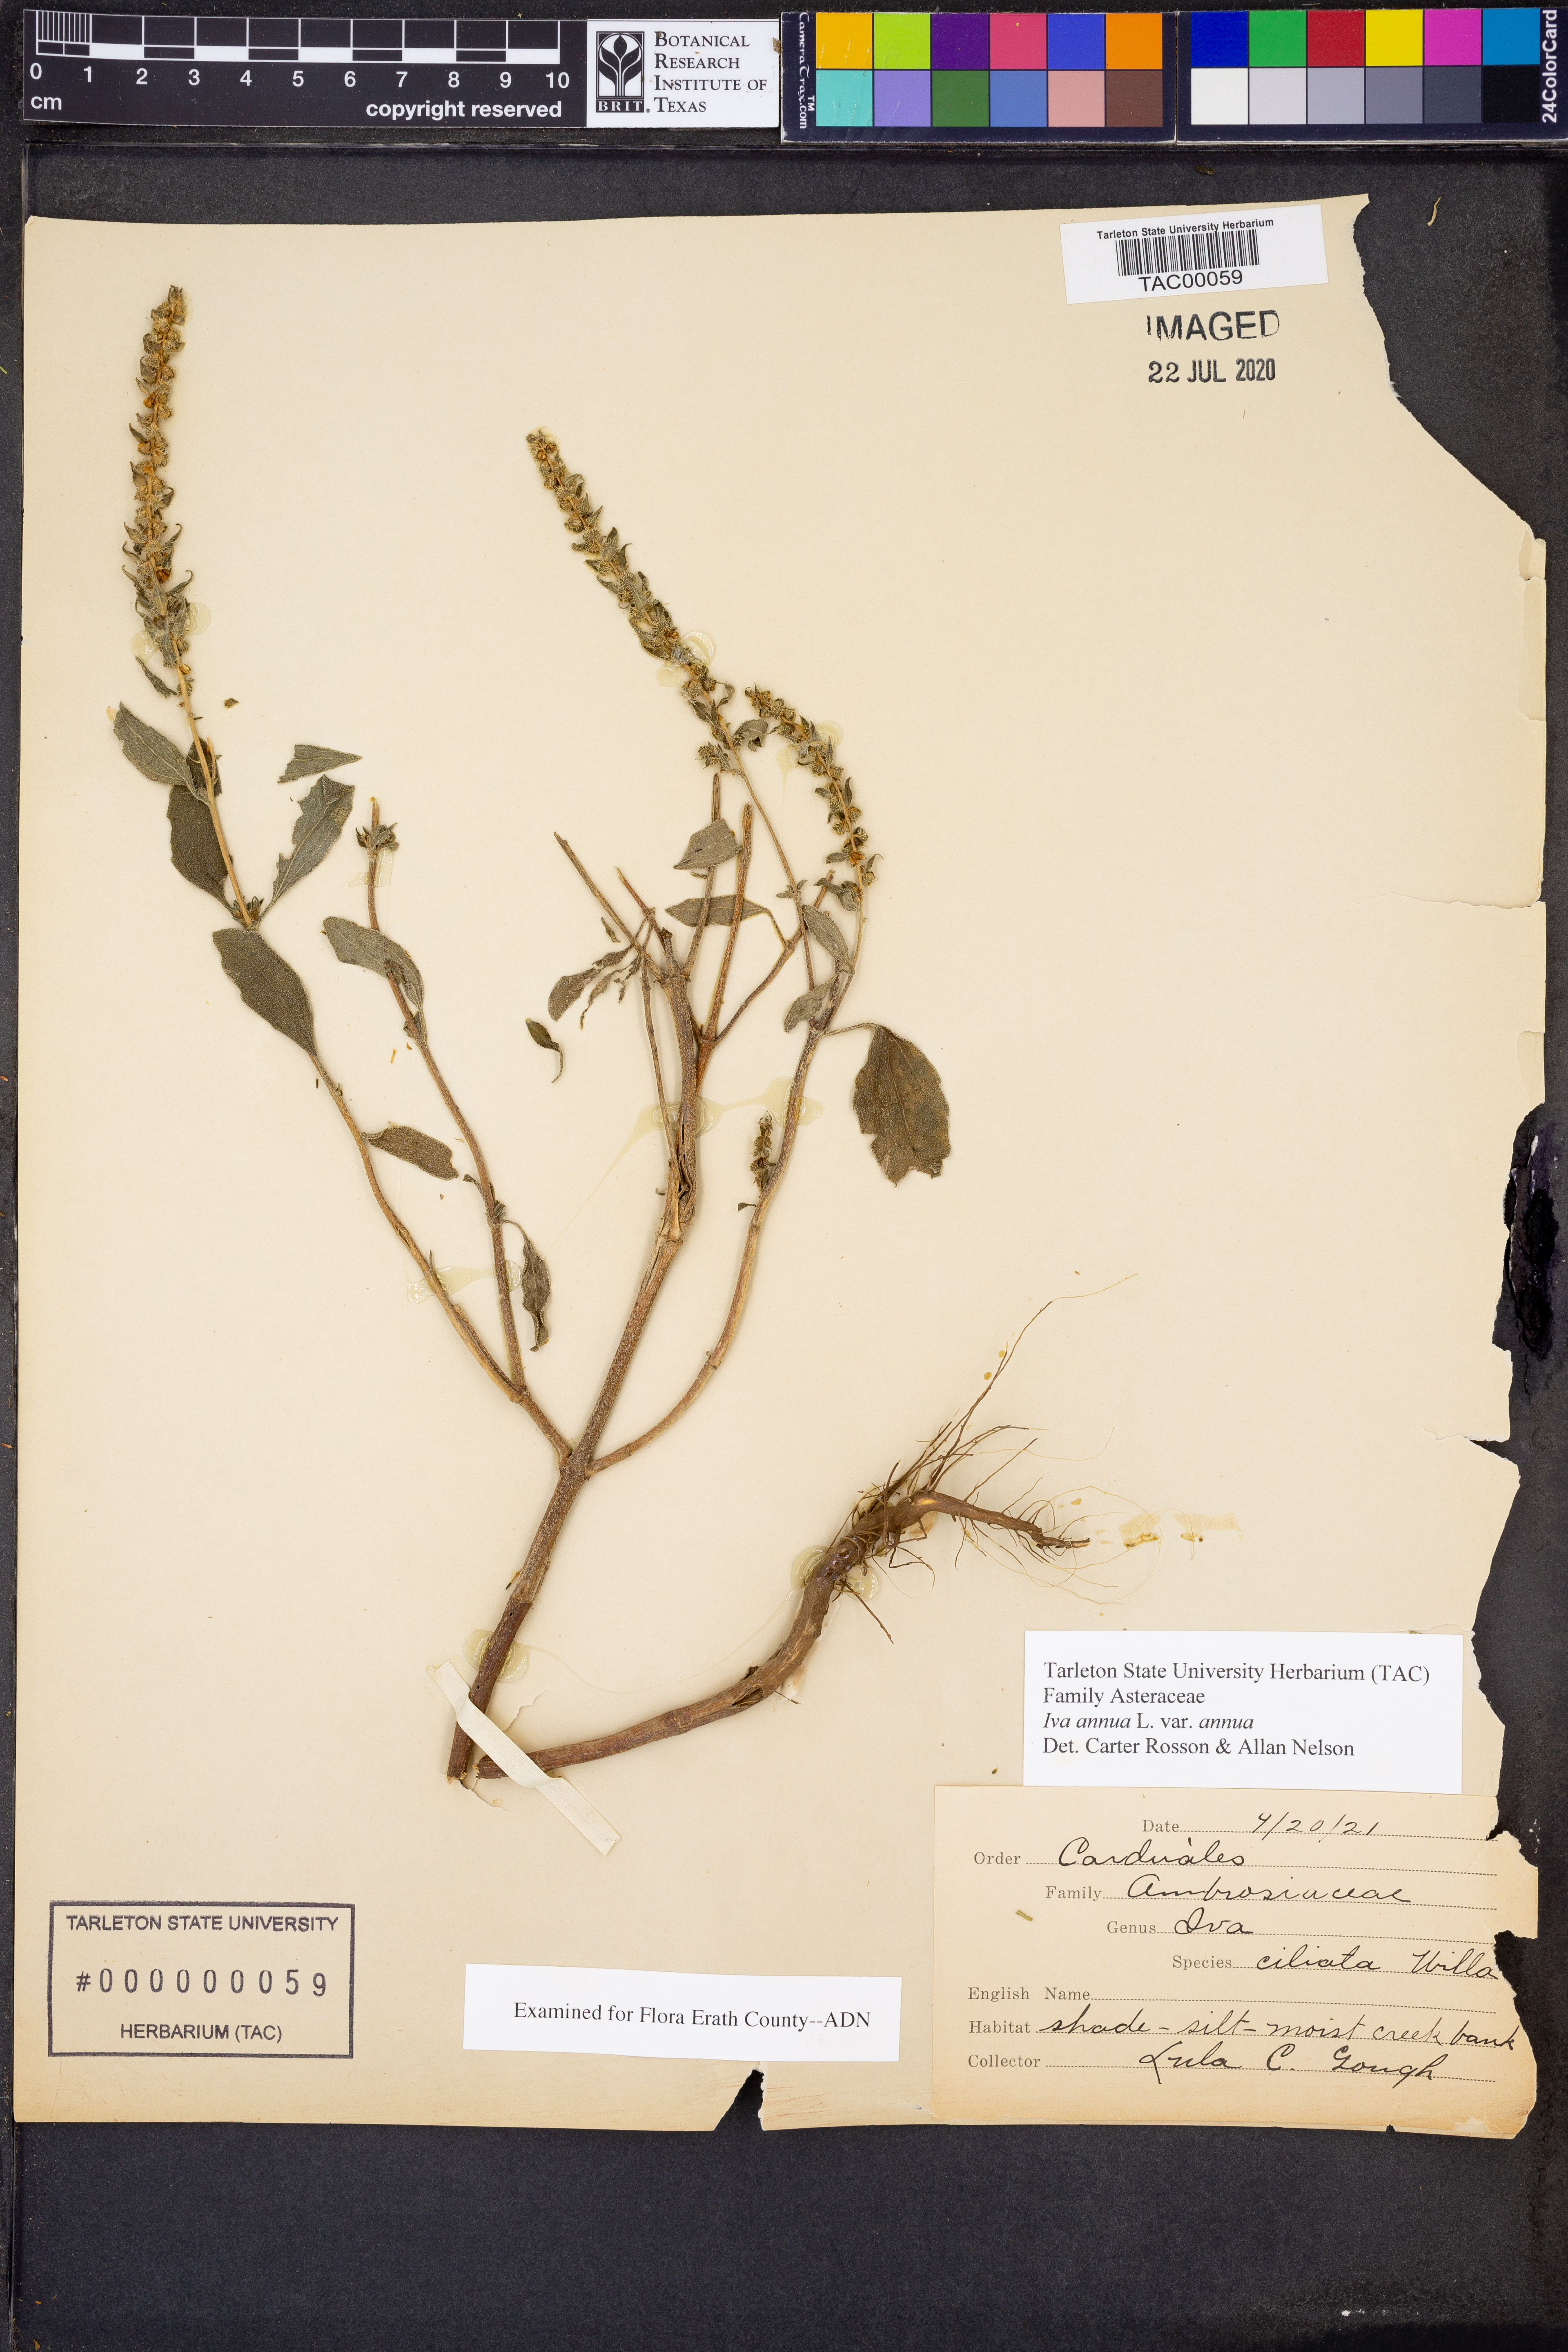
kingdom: Plantae
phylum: Tracheophyta
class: Magnoliopsida
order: Asterales
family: Asteraceae
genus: Iva
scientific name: Iva annua
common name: Marsh-elder
